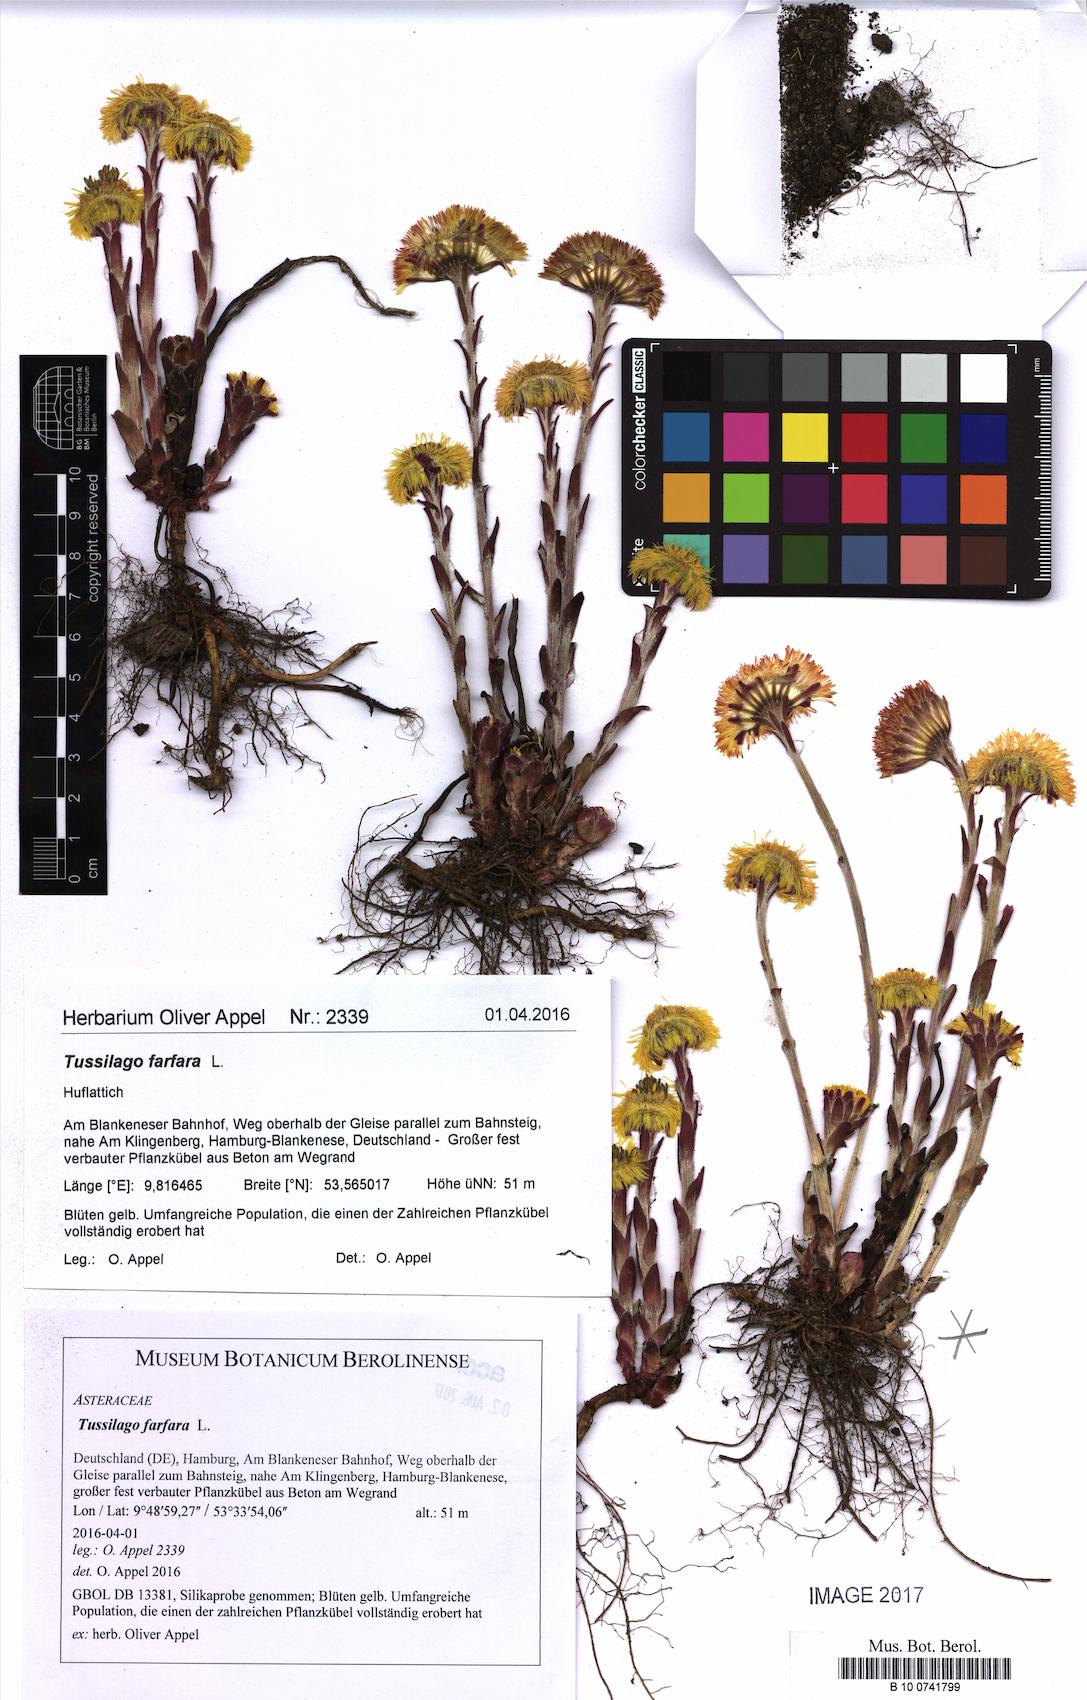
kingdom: Plantae
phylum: Tracheophyta
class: Magnoliopsida
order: Asterales
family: Asteraceae
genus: Tussilago
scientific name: Tussilago farfara
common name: Coltsfoot
